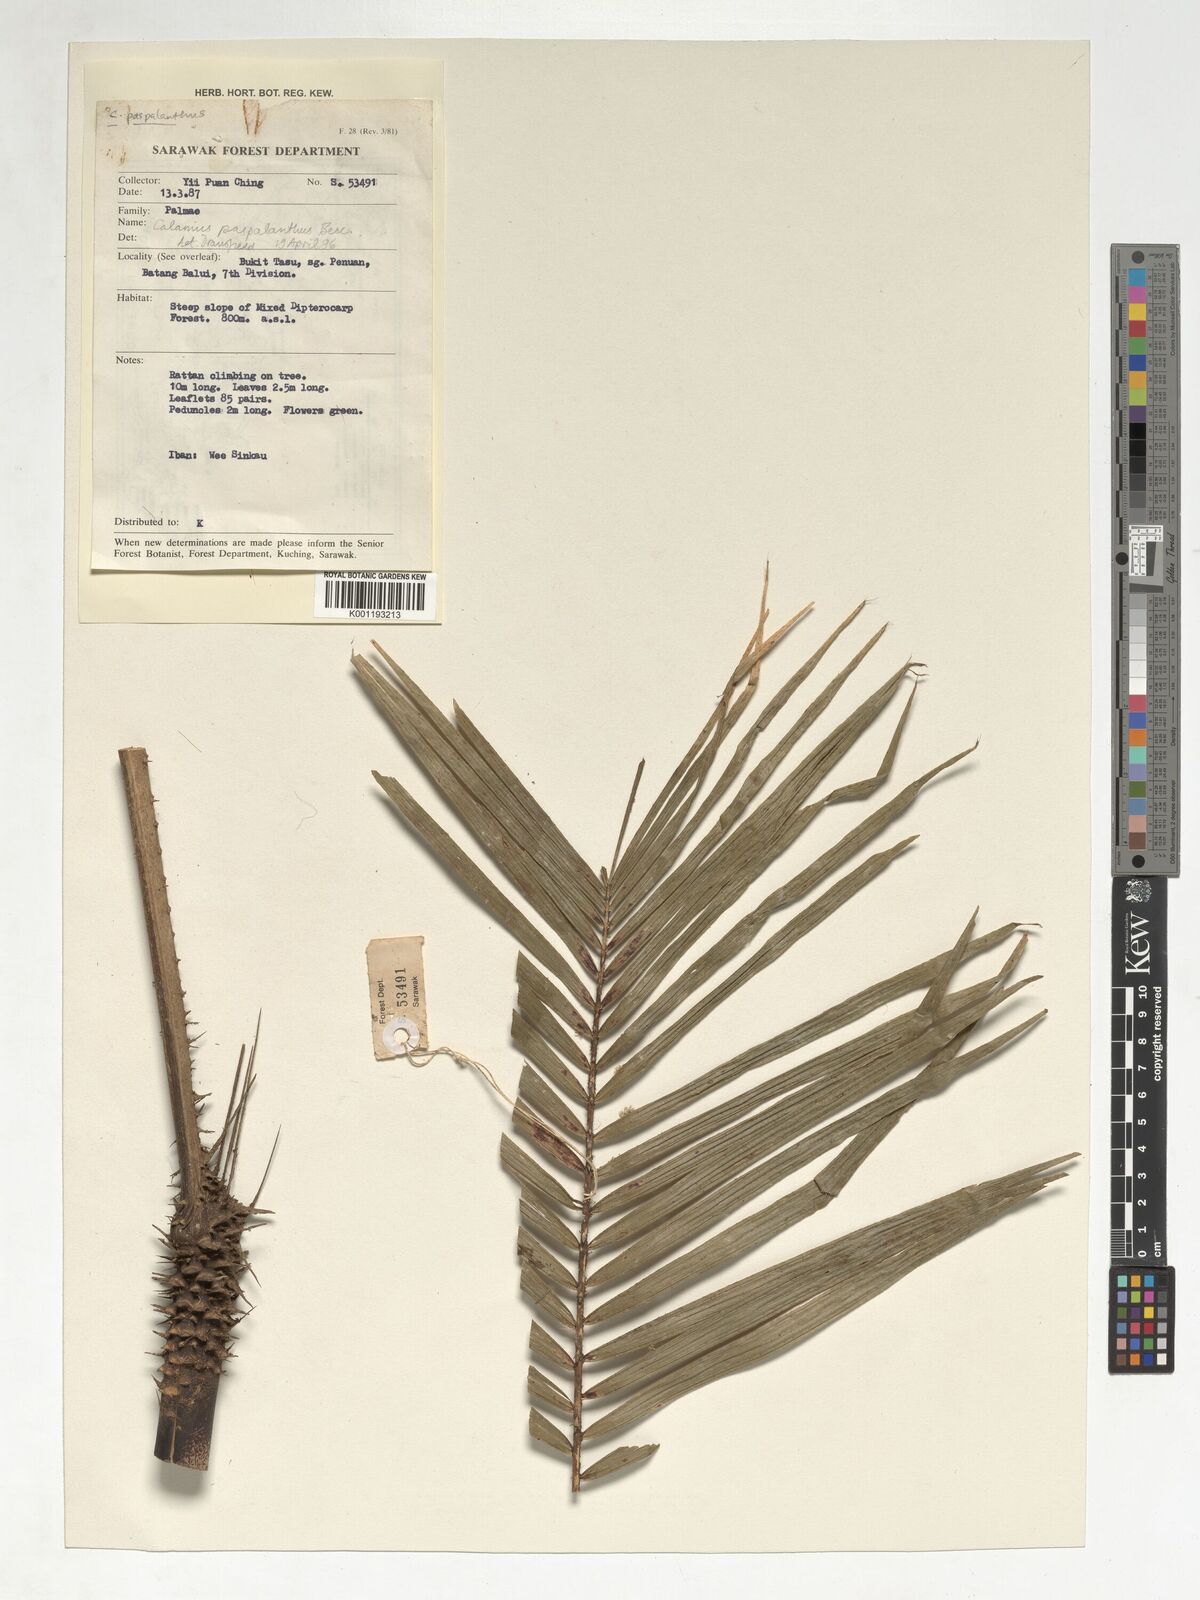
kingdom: Plantae
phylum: Tracheophyta
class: Liliopsida
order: Arecales
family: Arecaceae
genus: Calamus
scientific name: Calamus paspalanthus
